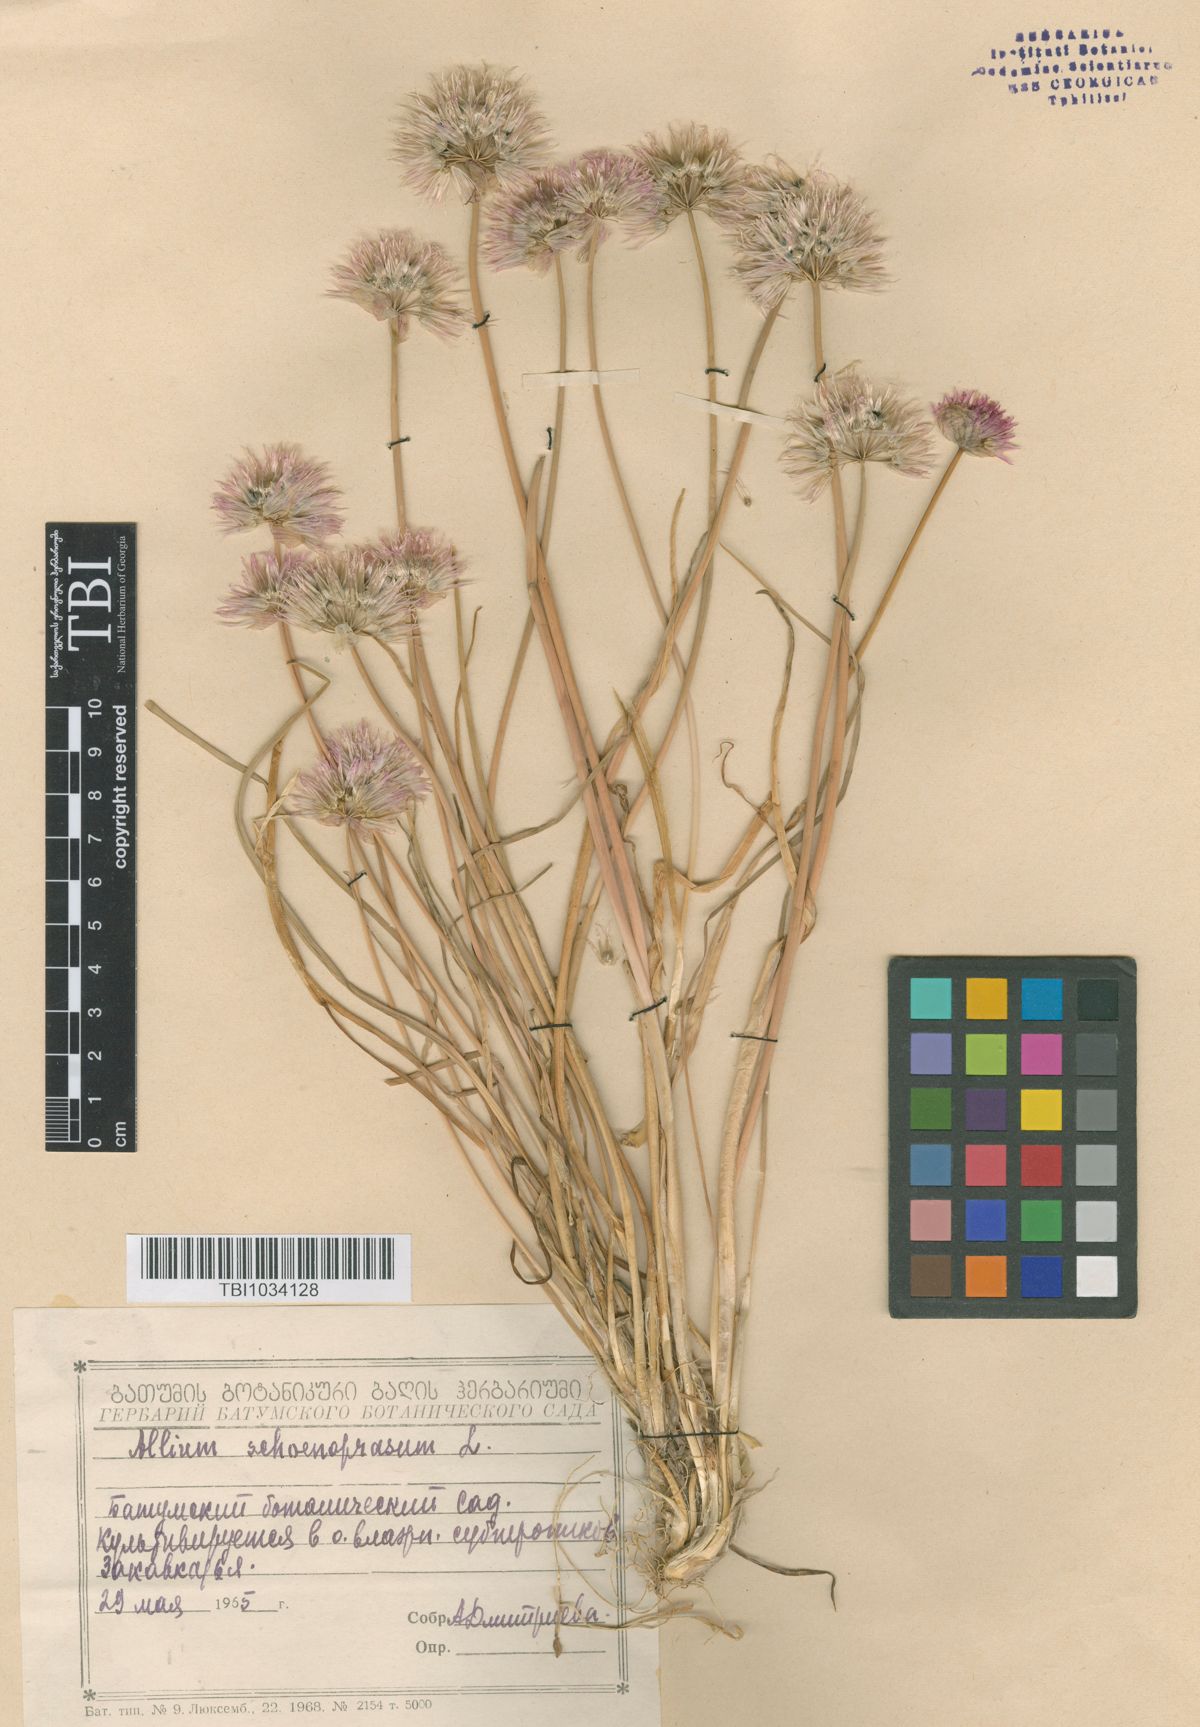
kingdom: Plantae
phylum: Tracheophyta
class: Liliopsida
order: Asparagales
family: Amaryllidaceae
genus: Allium
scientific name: Allium schoenoprasum
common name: Chives
